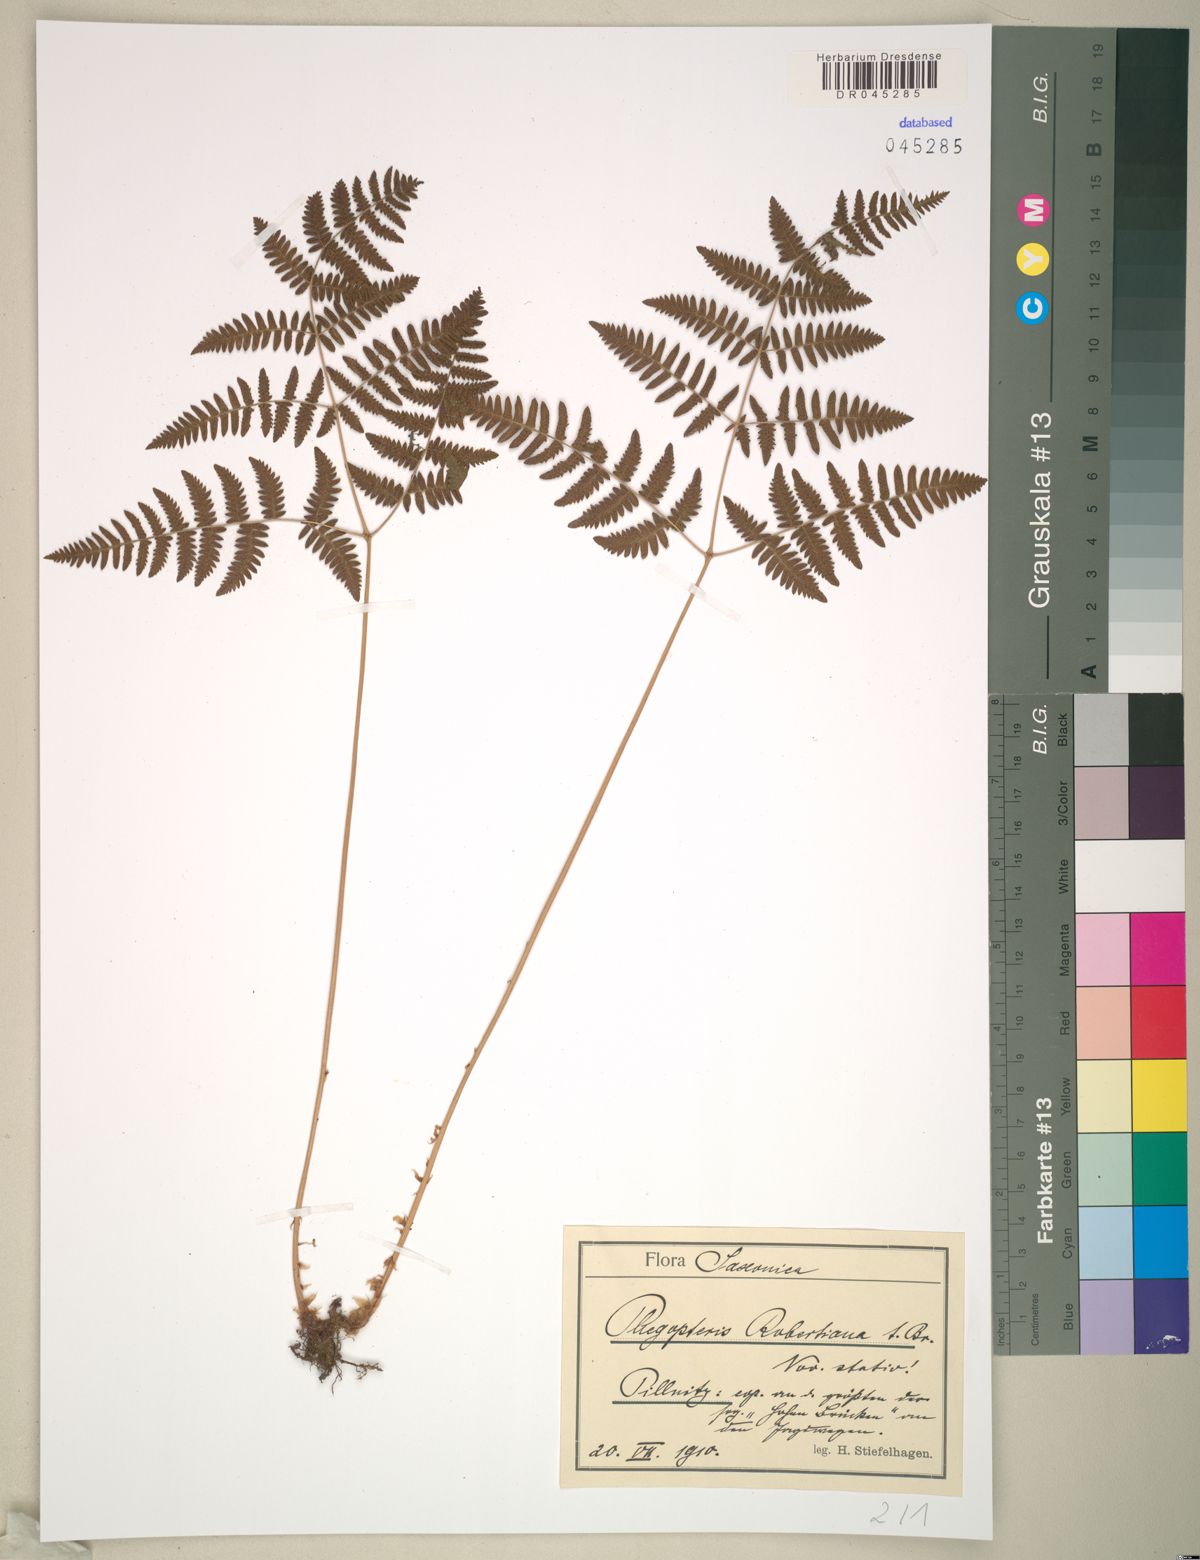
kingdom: Plantae
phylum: Tracheophyta
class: Polypodiopsida
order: Polypodiales
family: Cystopteridaceae
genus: Gymnocarpium
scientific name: Gymnocarpium robertianum
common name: Limestone fern
